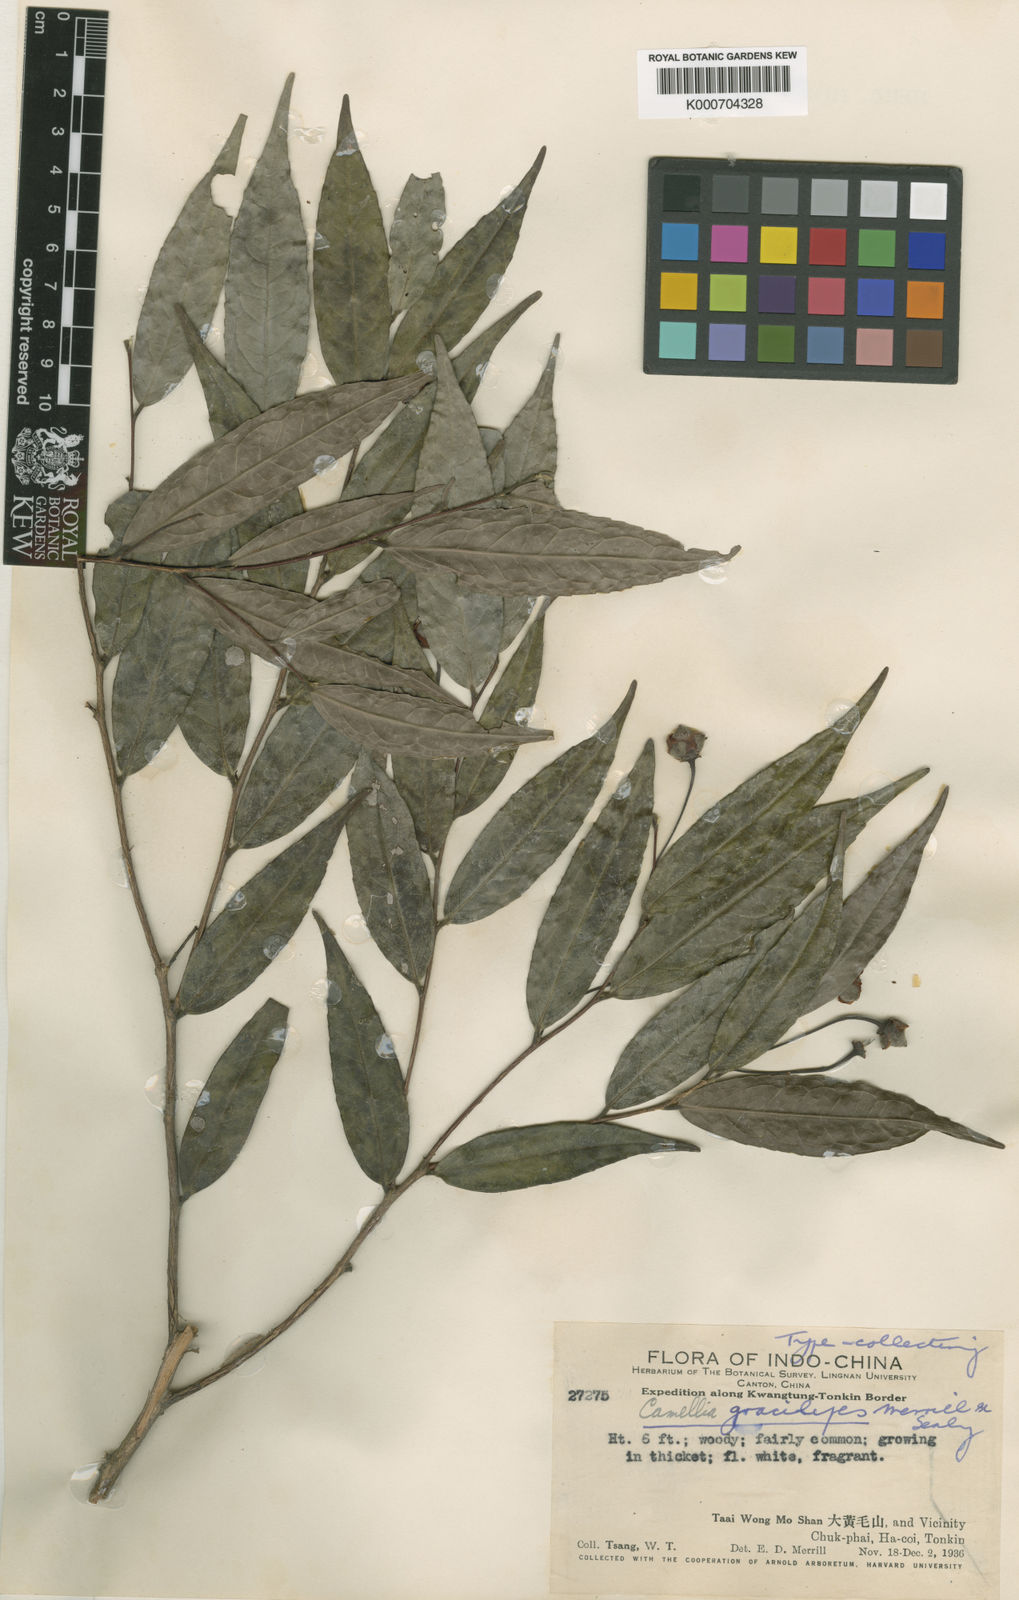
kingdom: Plantae
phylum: Tracheophyta
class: Magnoliopsida
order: Ericales
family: Theaceae
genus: Camellia
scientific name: Camellia gracilipes
